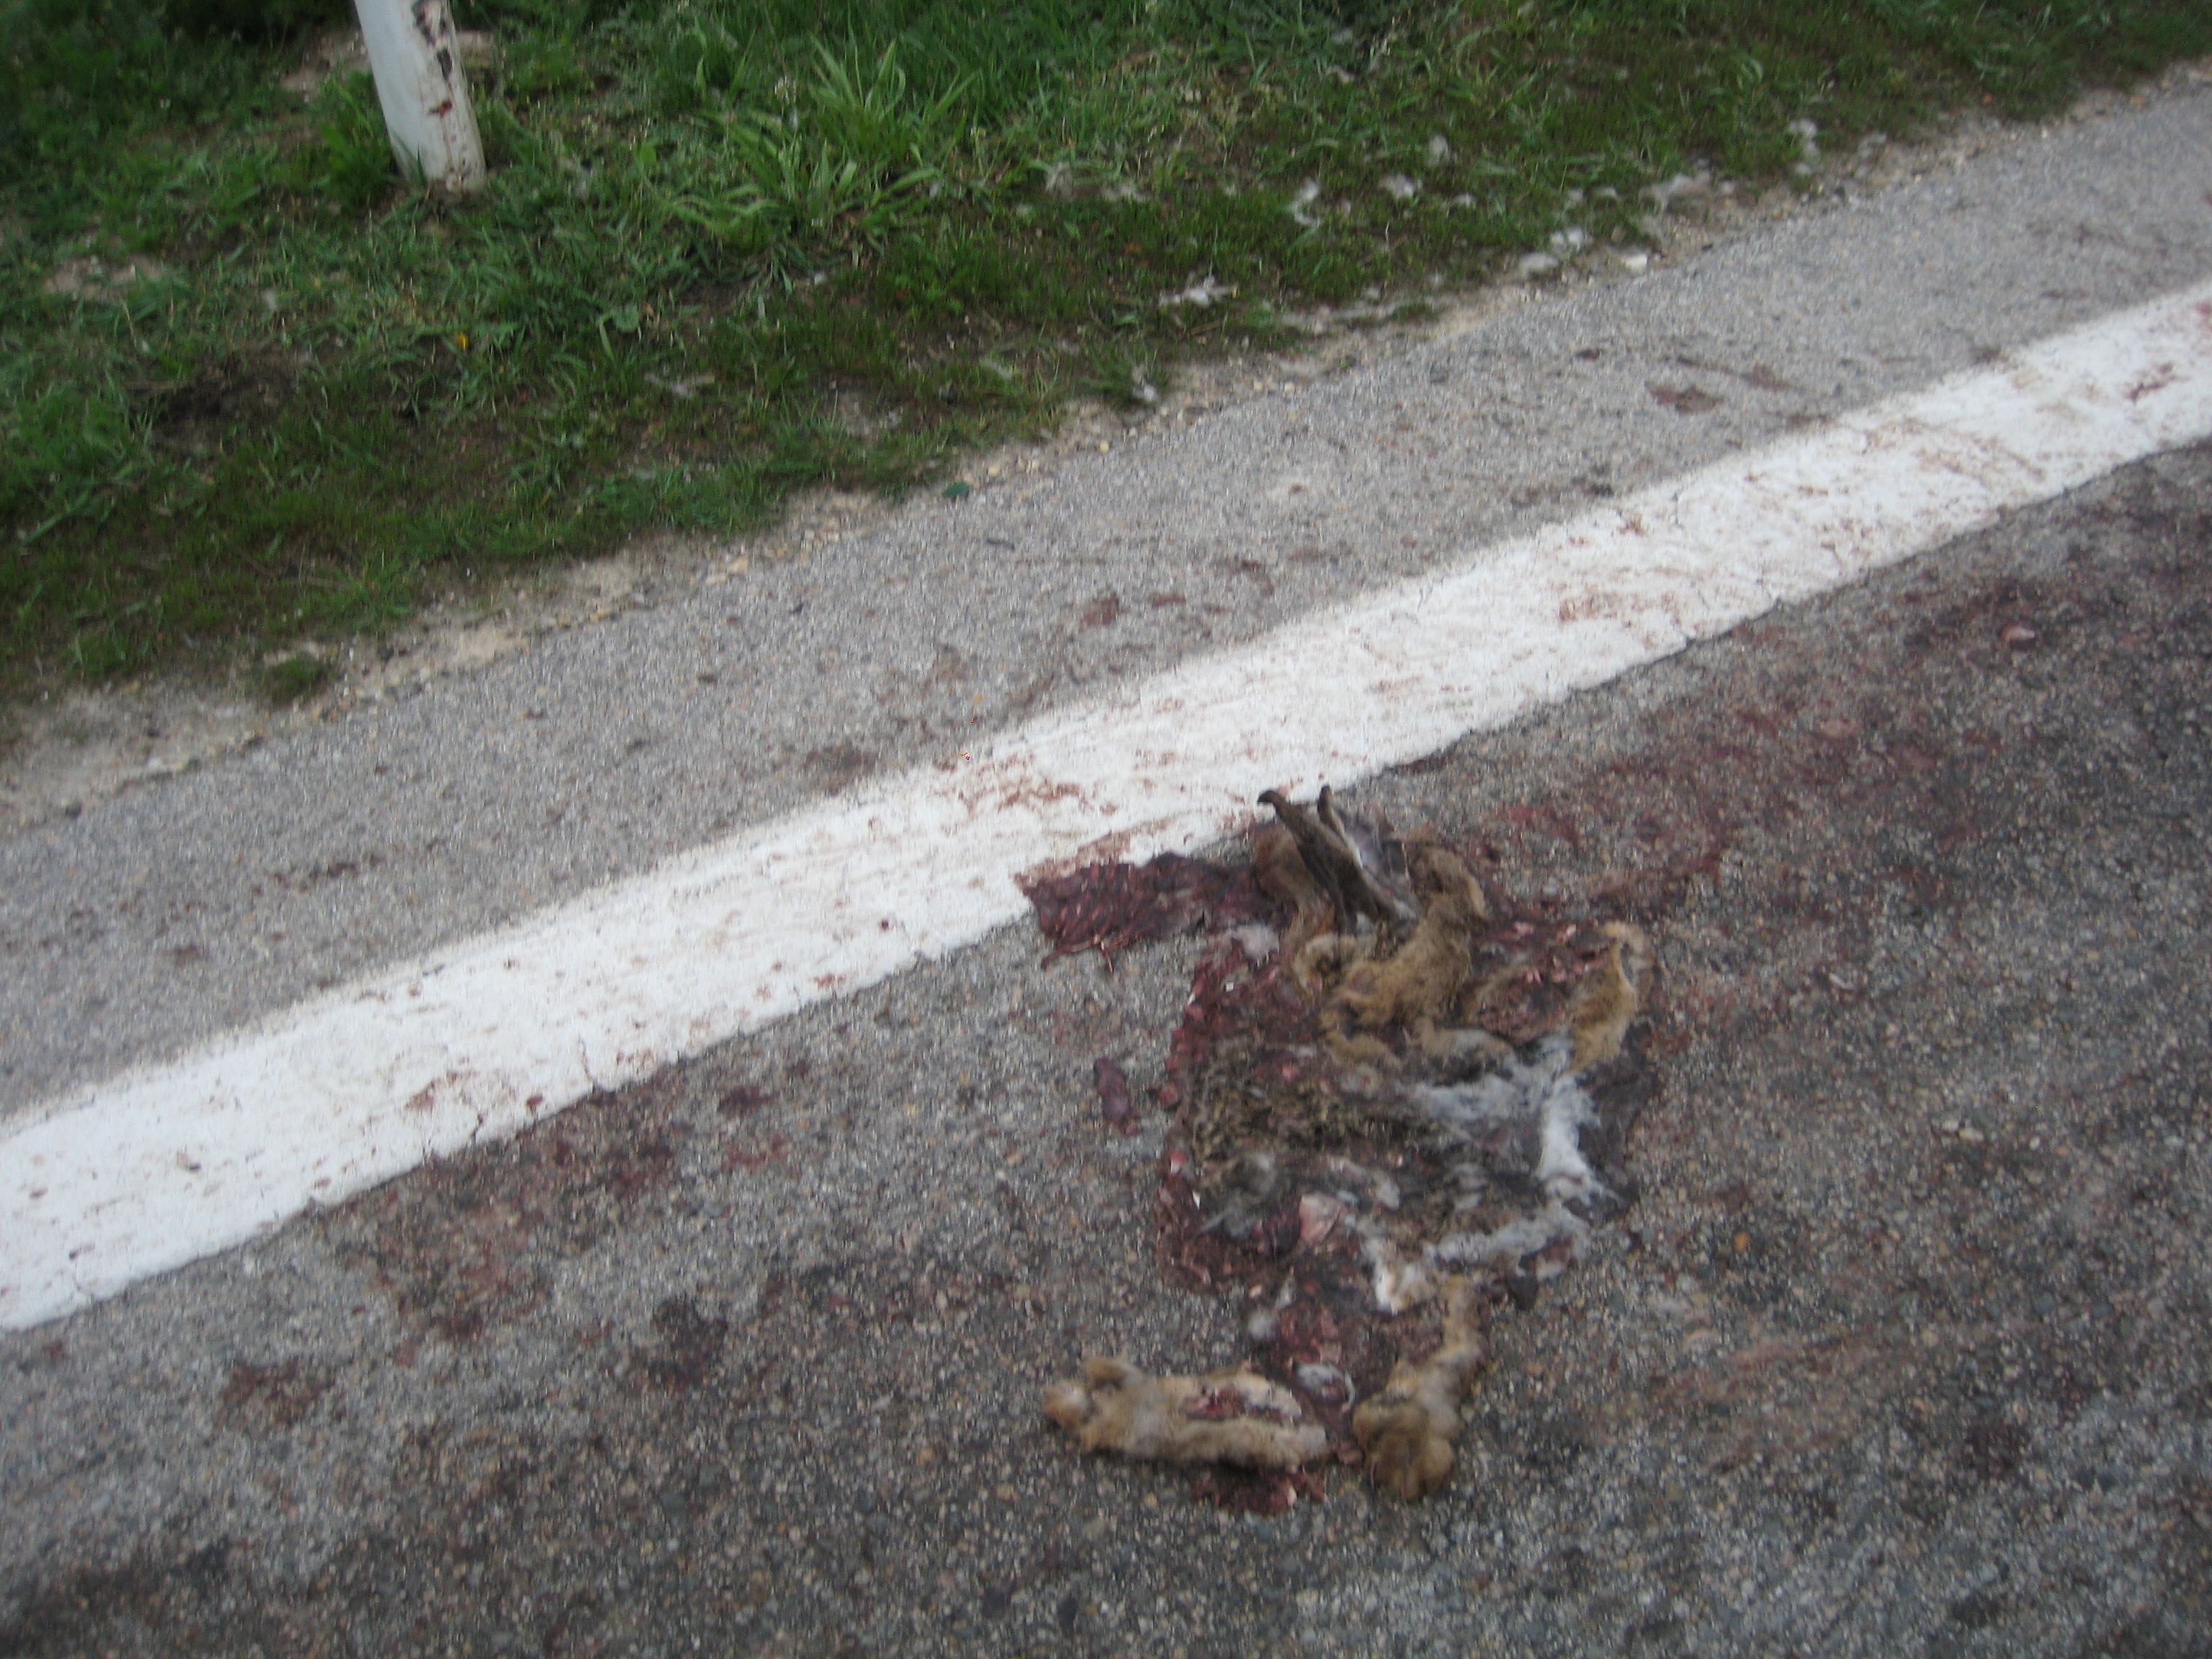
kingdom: Animalia
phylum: Chordata
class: Mammalia
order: Lagomorpha
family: Leporidae
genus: Lepus
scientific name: Lepus europaeus
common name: European hare
